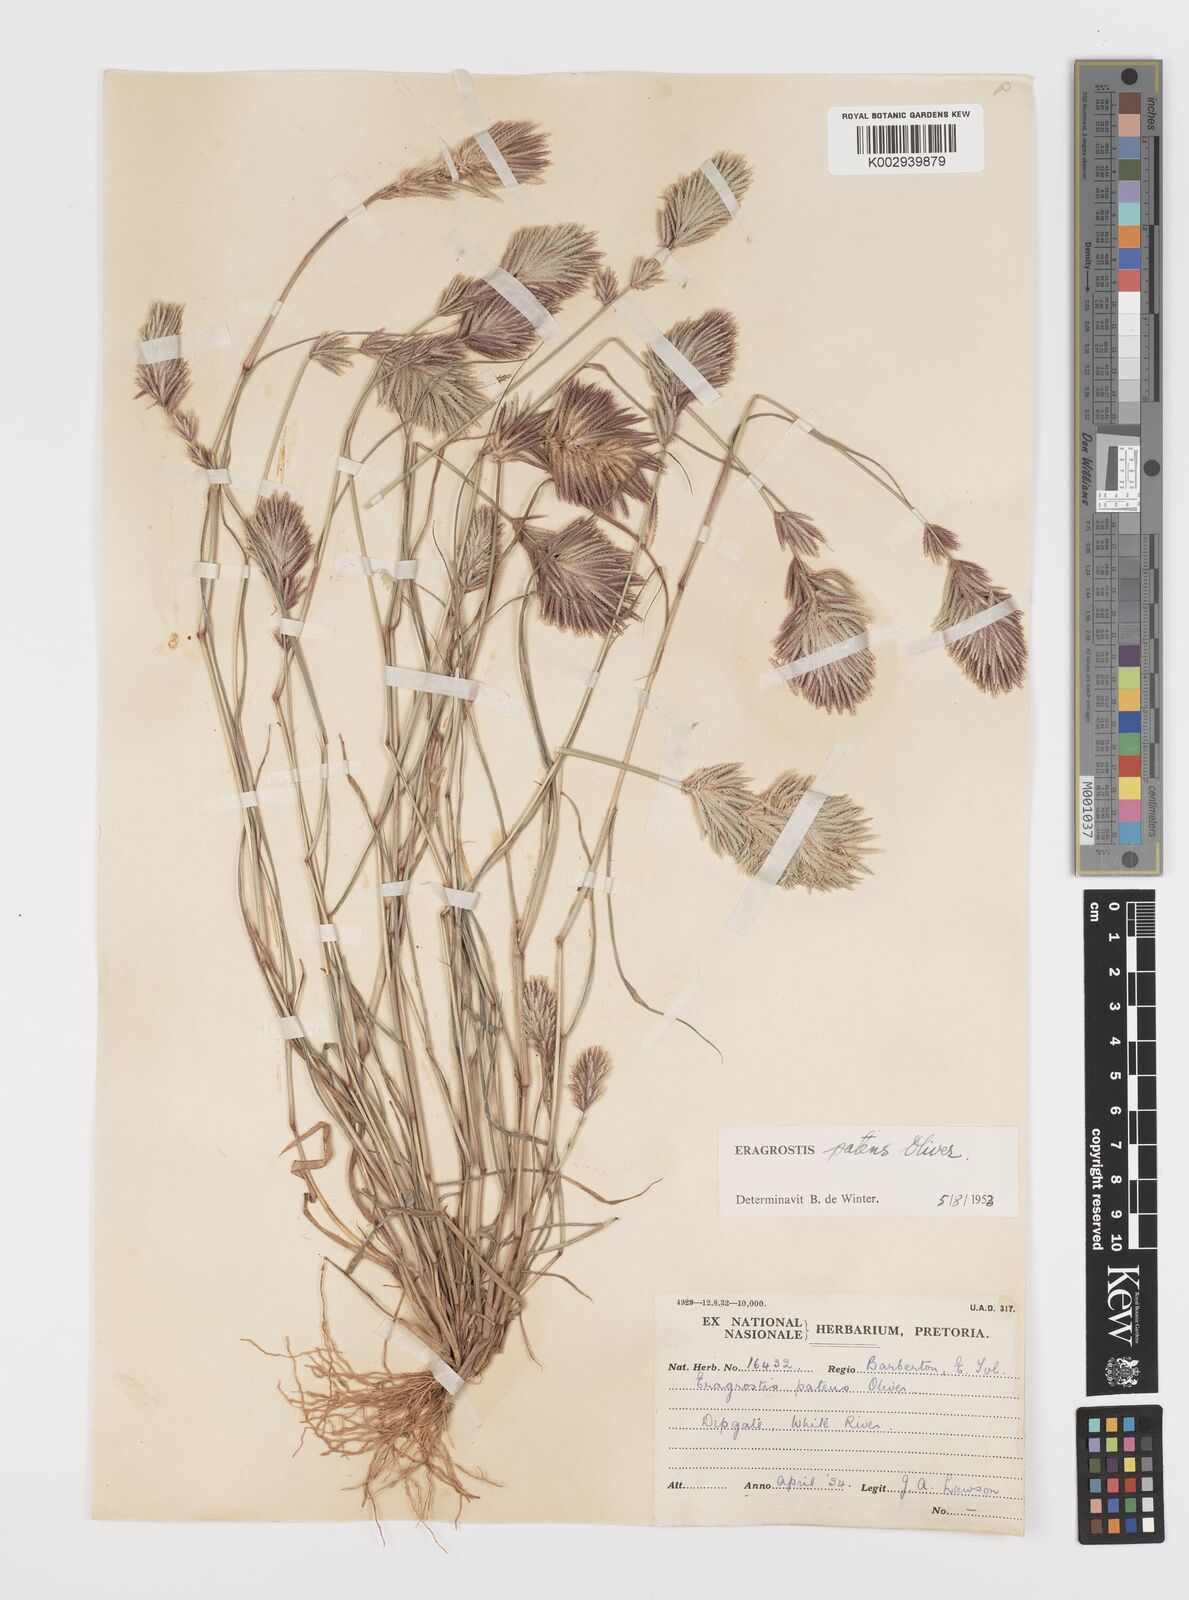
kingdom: Plantae
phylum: Tracheophyta
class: Liliopsida
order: Poales
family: Poaceae
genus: Eragrostis
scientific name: Eragrostis patens
